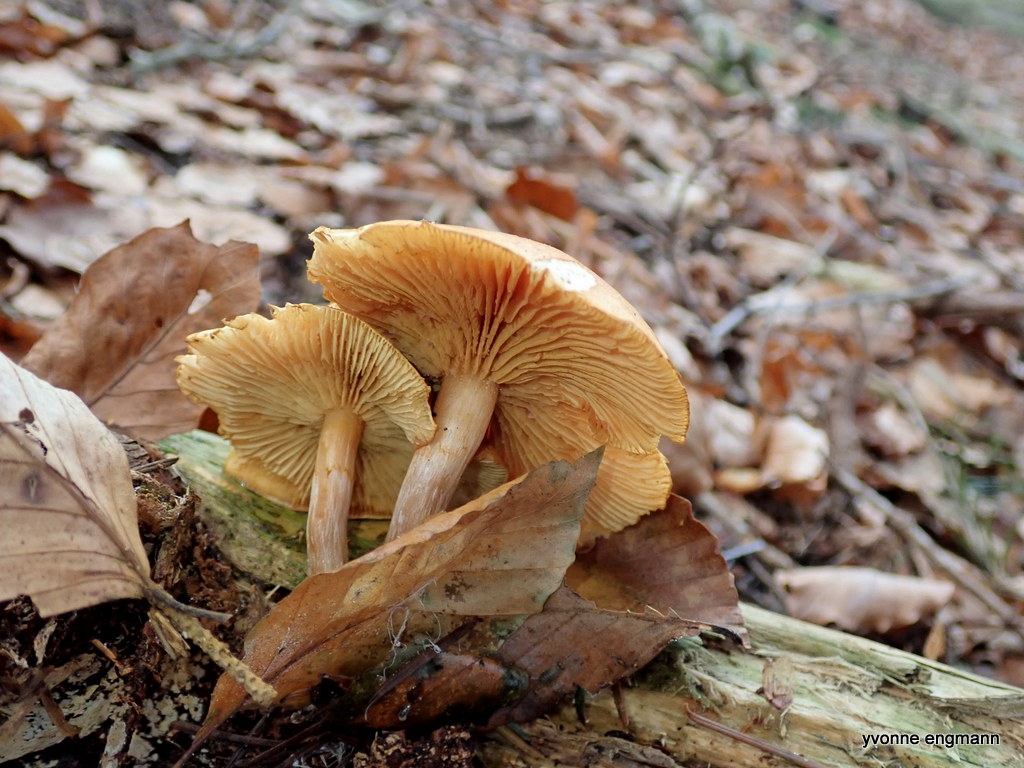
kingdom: Fungi
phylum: Basidiomycota
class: Agaricomycetes
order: Agaricales
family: Hymenogastraceae
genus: Gymnopilus
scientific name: Gymnopilus penetrans
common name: plettet flammehat
